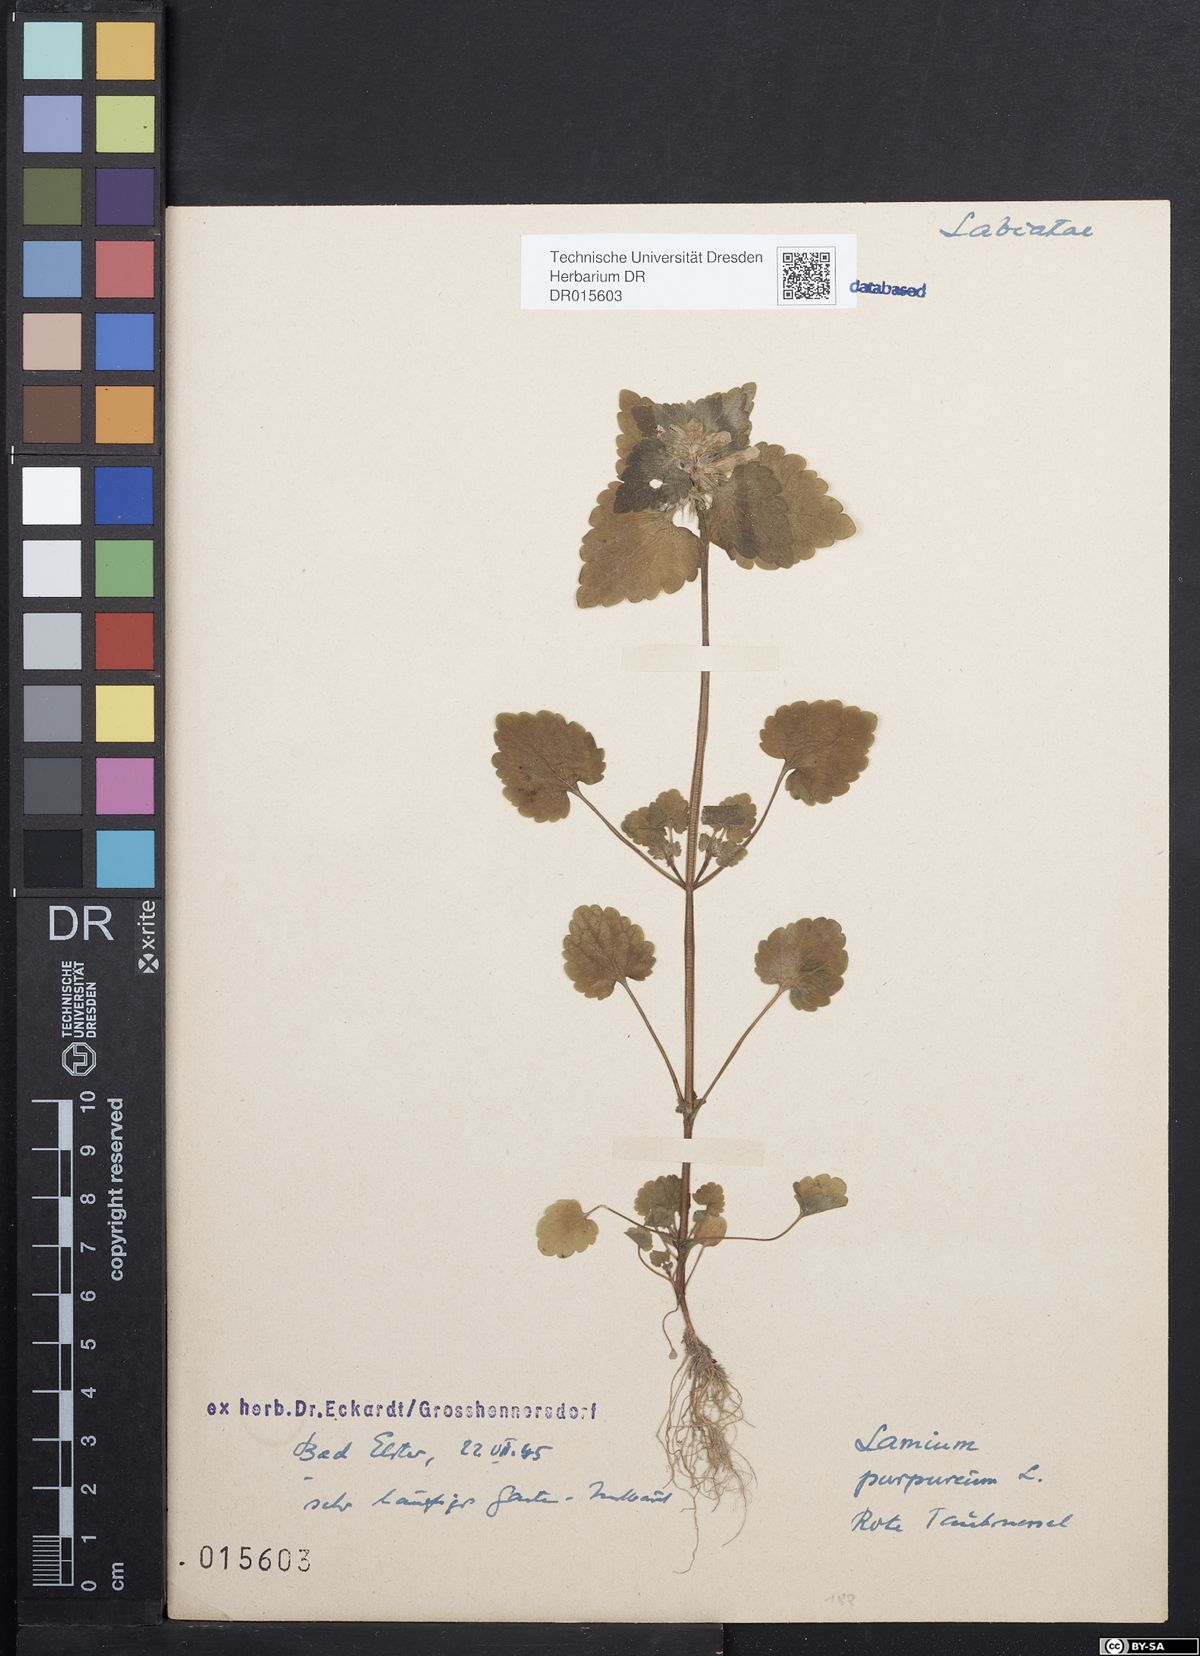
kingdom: Plantae
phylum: Tracheophyta
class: Magnoliopsida
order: Lamiales
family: Lamiaceae
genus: Lamium
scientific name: Lamium purpureum
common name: Red dead-nettle
